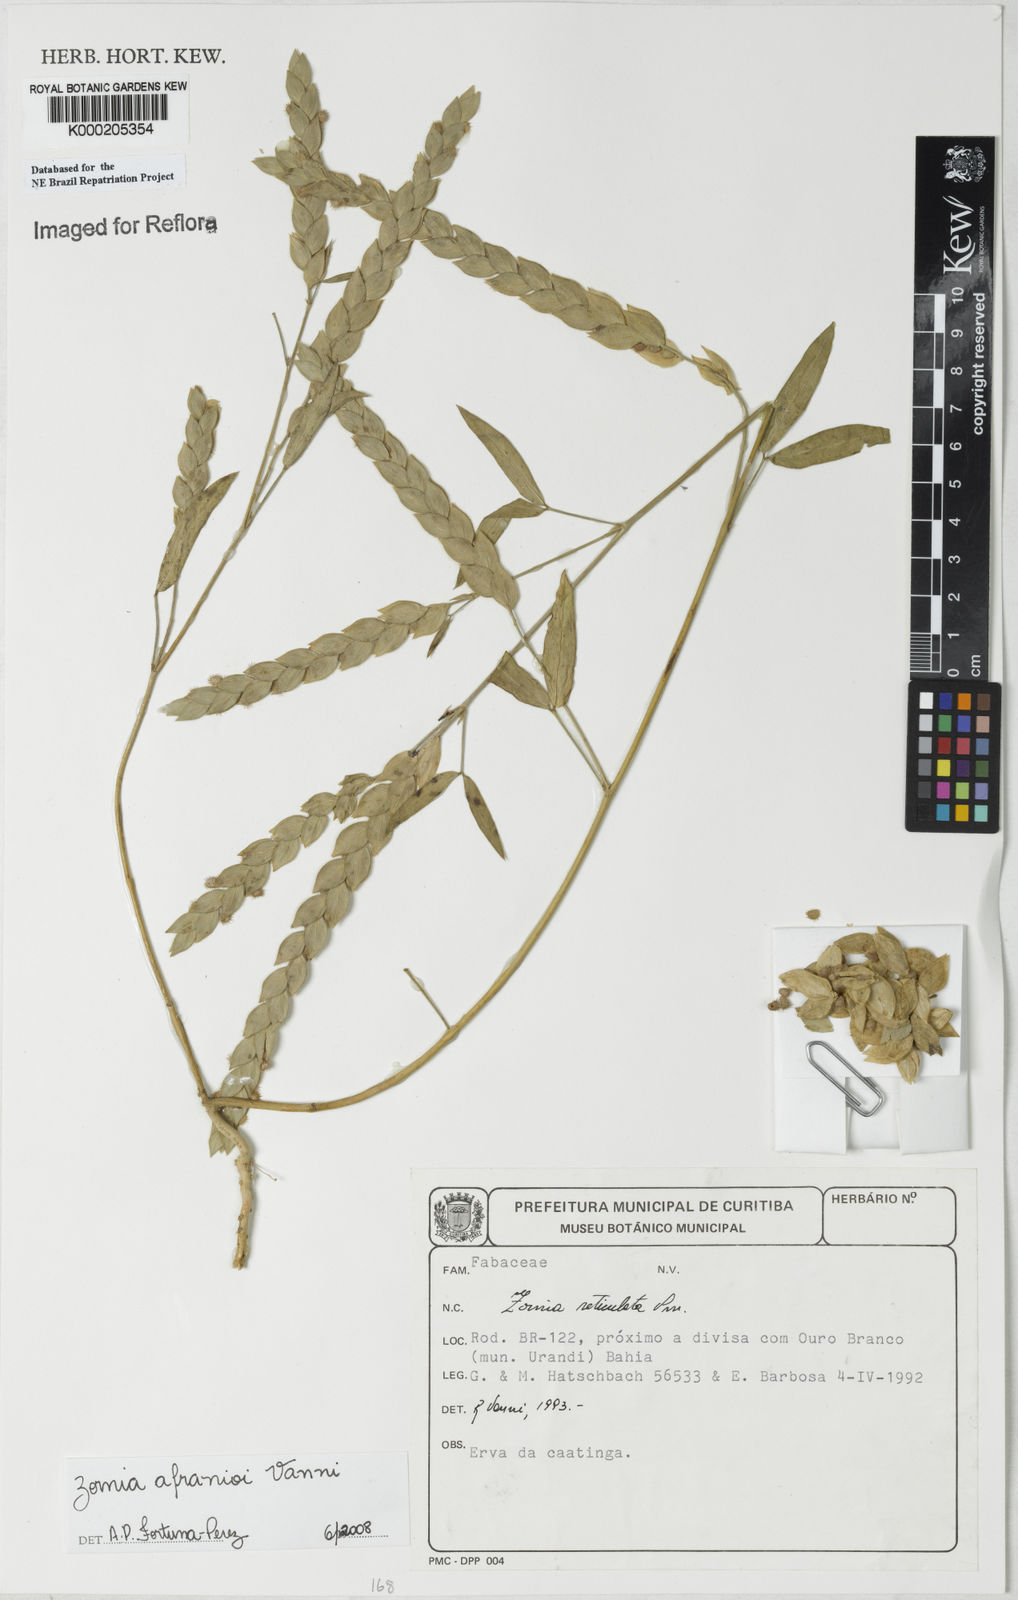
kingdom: Plantae
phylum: Tracheophyta
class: Magnoliopsida
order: Fabales
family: Fabaceae
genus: Zornia
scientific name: Zornia reticulata
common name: Reticulate viperina
